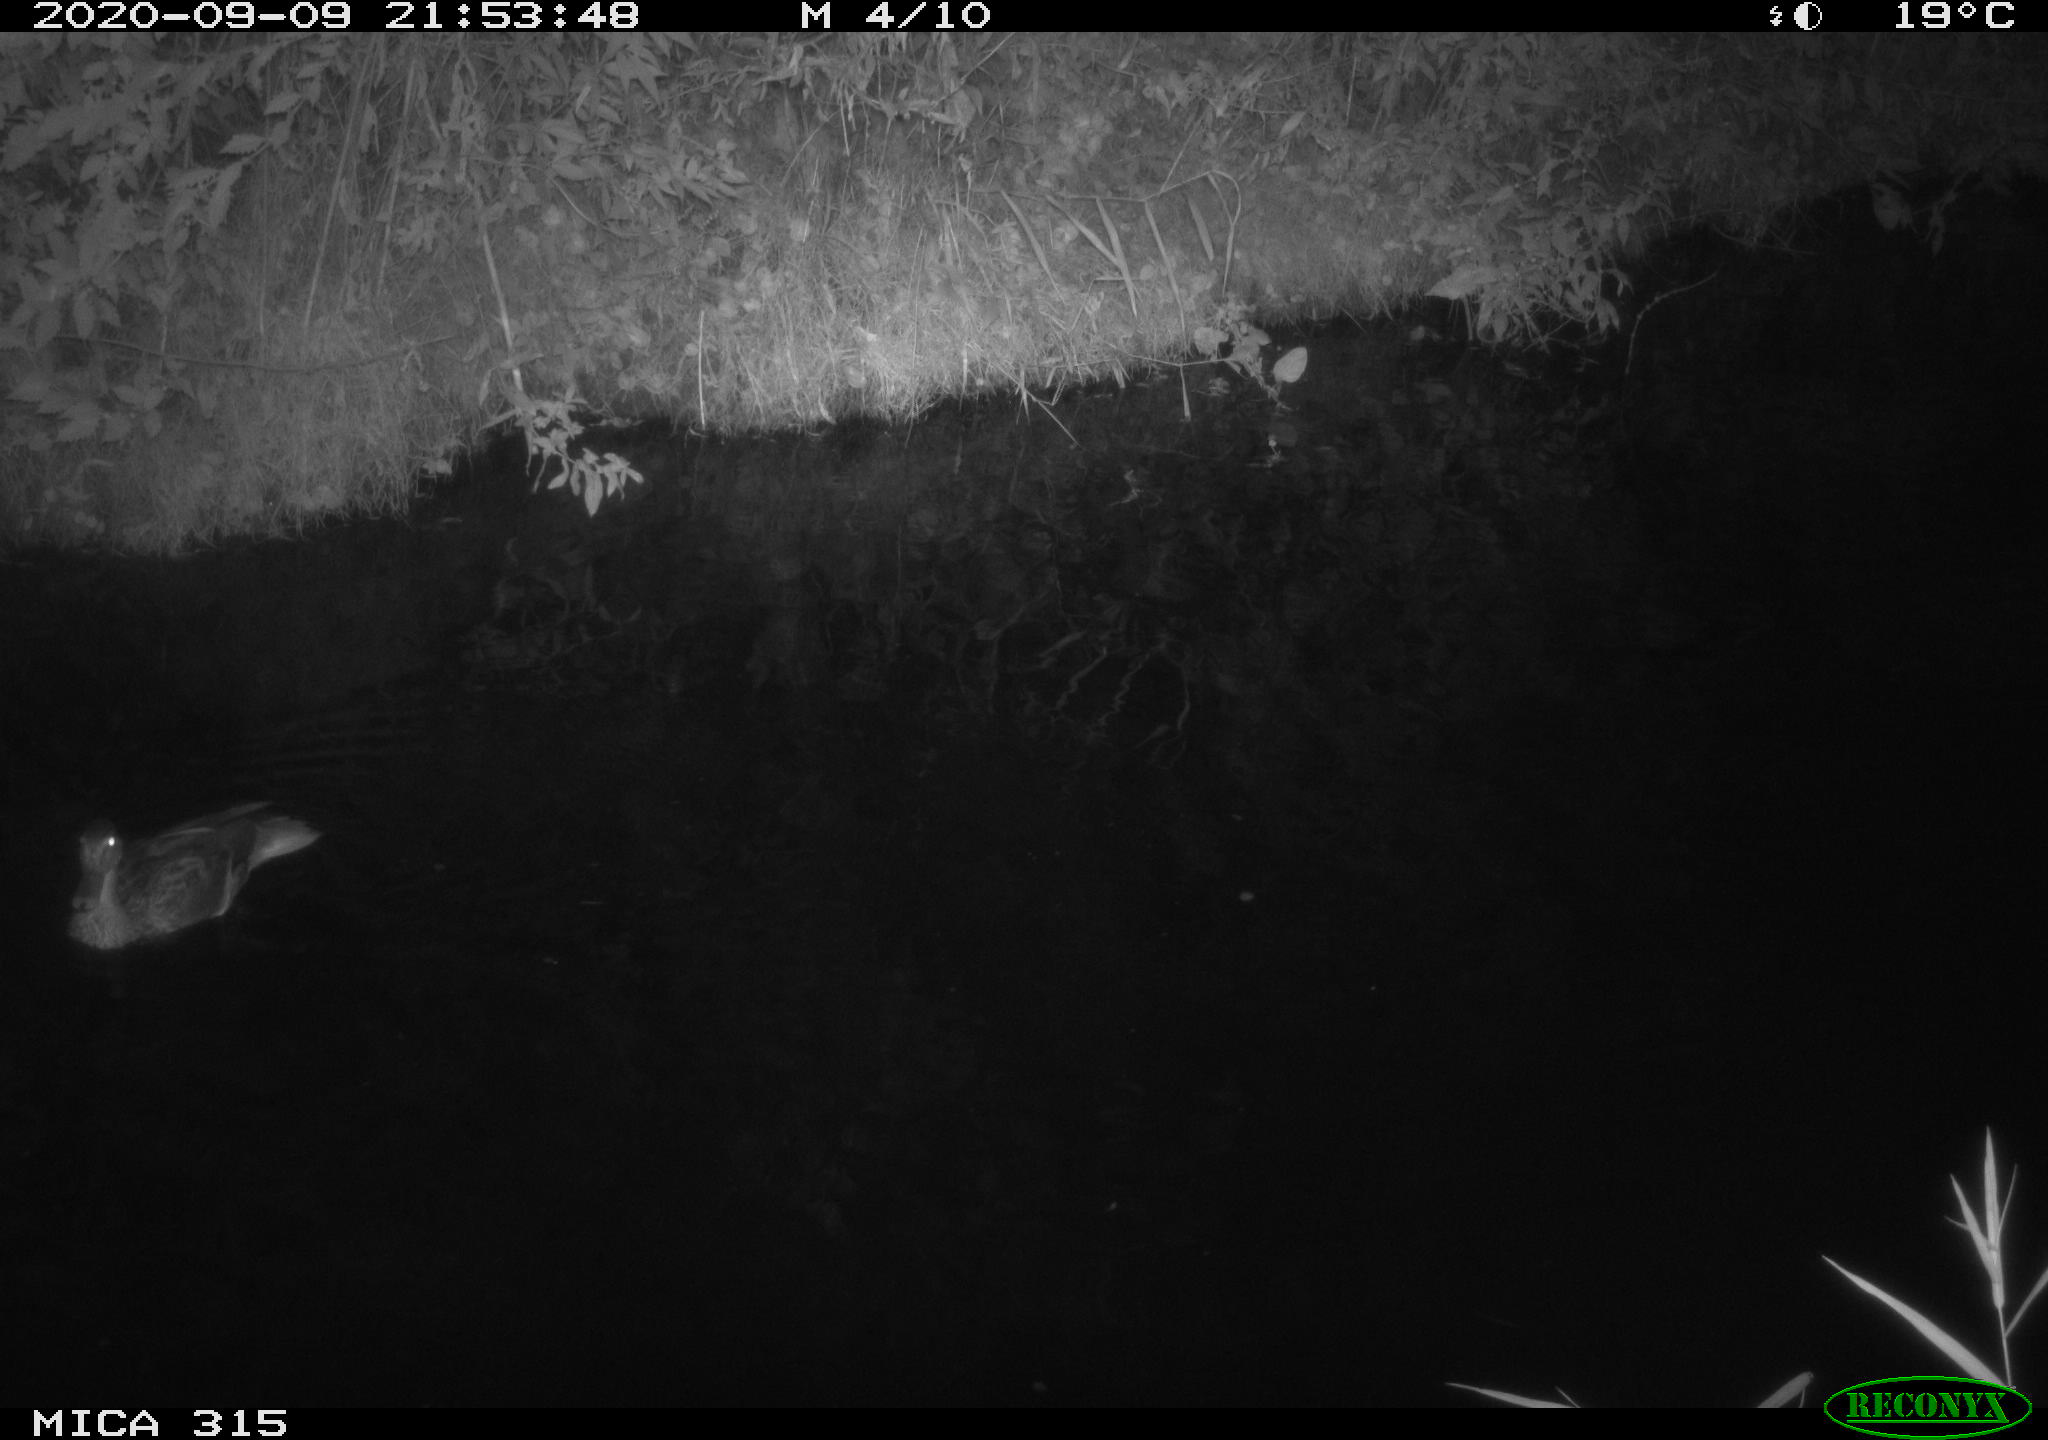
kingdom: Animalia
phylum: Chordata
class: Aves
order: Anseriformes
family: Anatidae
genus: Anas
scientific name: Anas platyrhynchos
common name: Mallard
